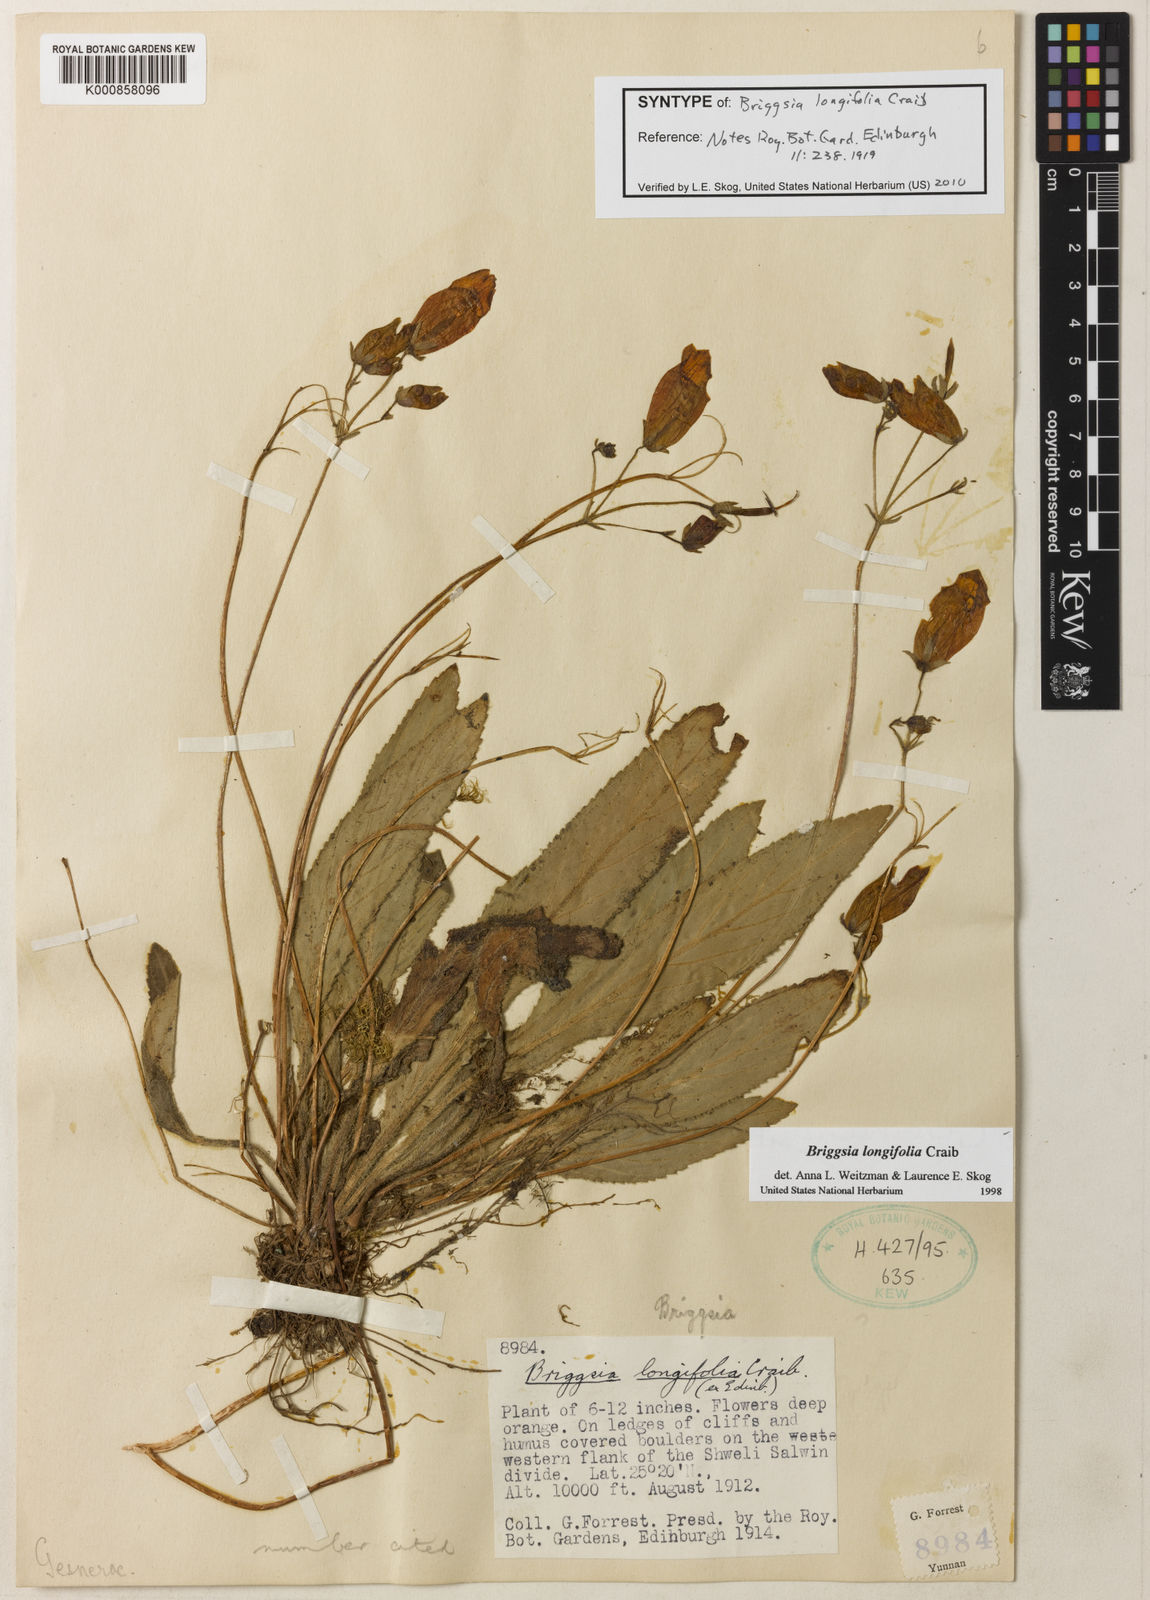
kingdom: Plantae
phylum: Tracheophyta
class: Magnoliopsida
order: Lamiales
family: Gesneriaceae
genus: Oreocharis
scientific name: Oreocharis
